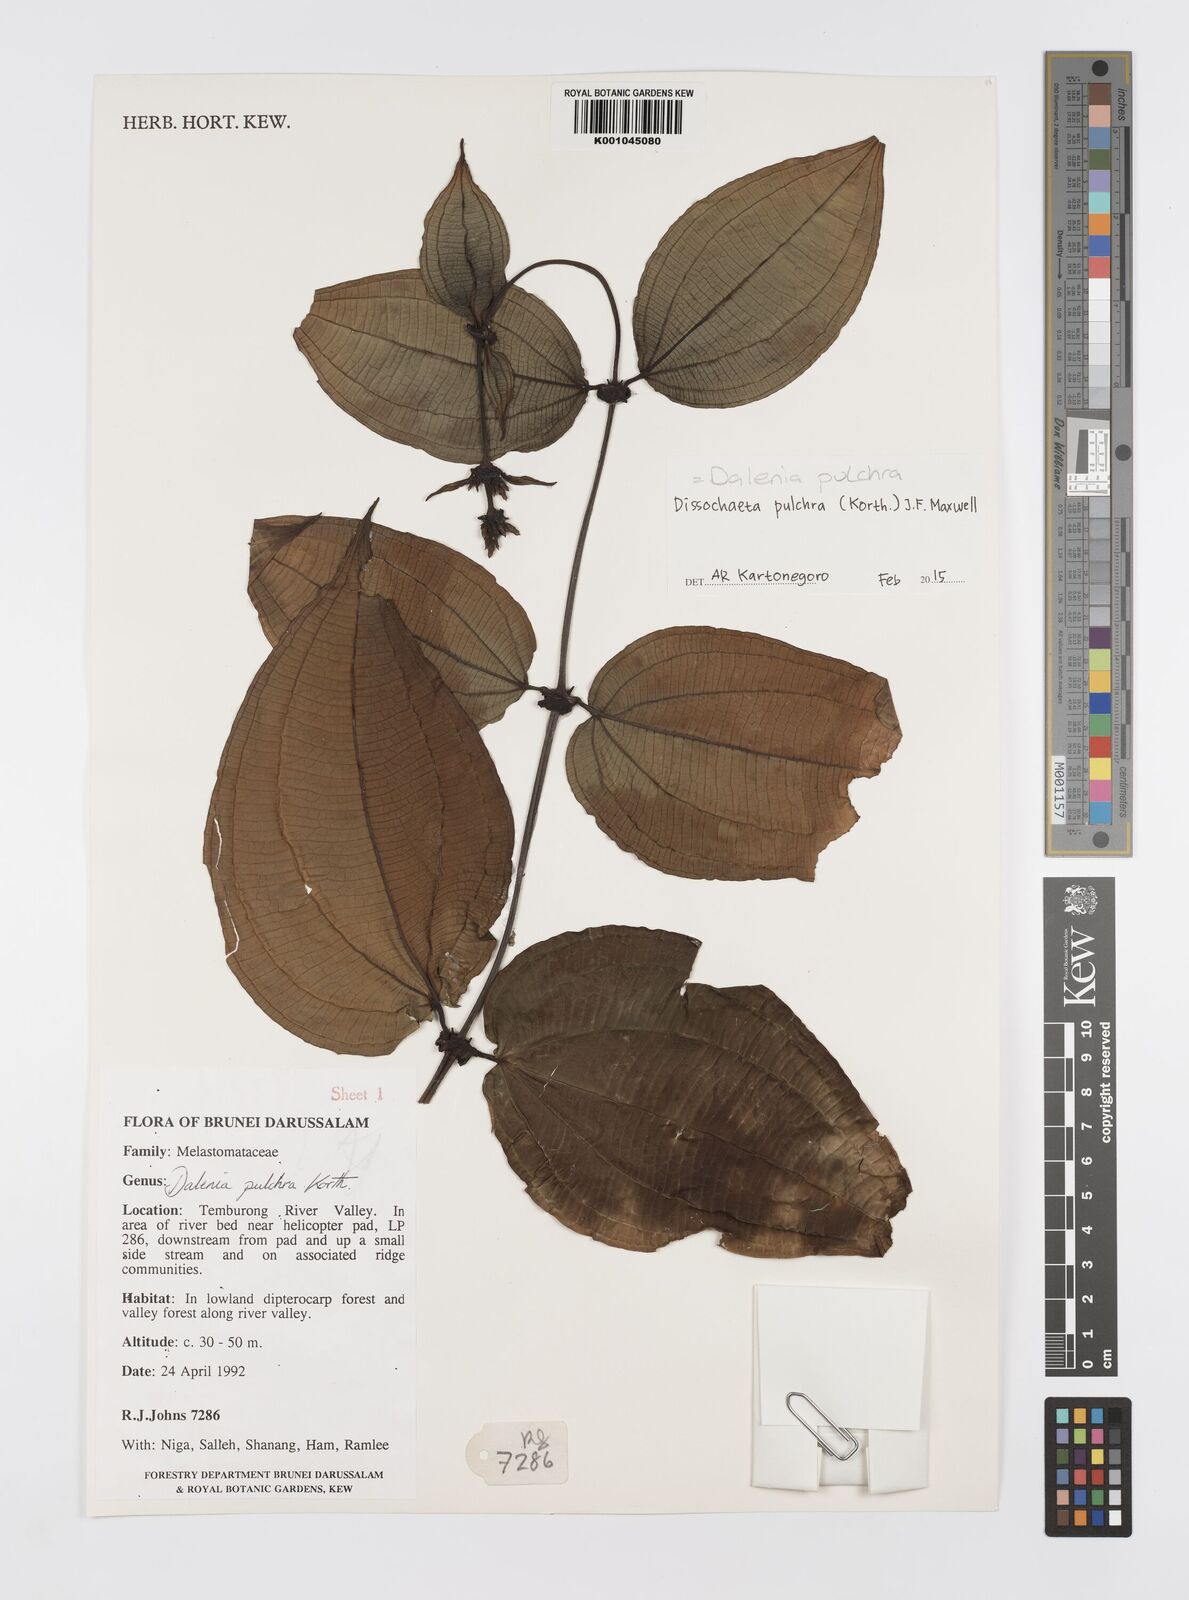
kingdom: Plantae
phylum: Tracheophyta
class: Magnoliopsida
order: Myrtales
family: Melastomataceae
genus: Dalenia
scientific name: Dalenia pulchra
